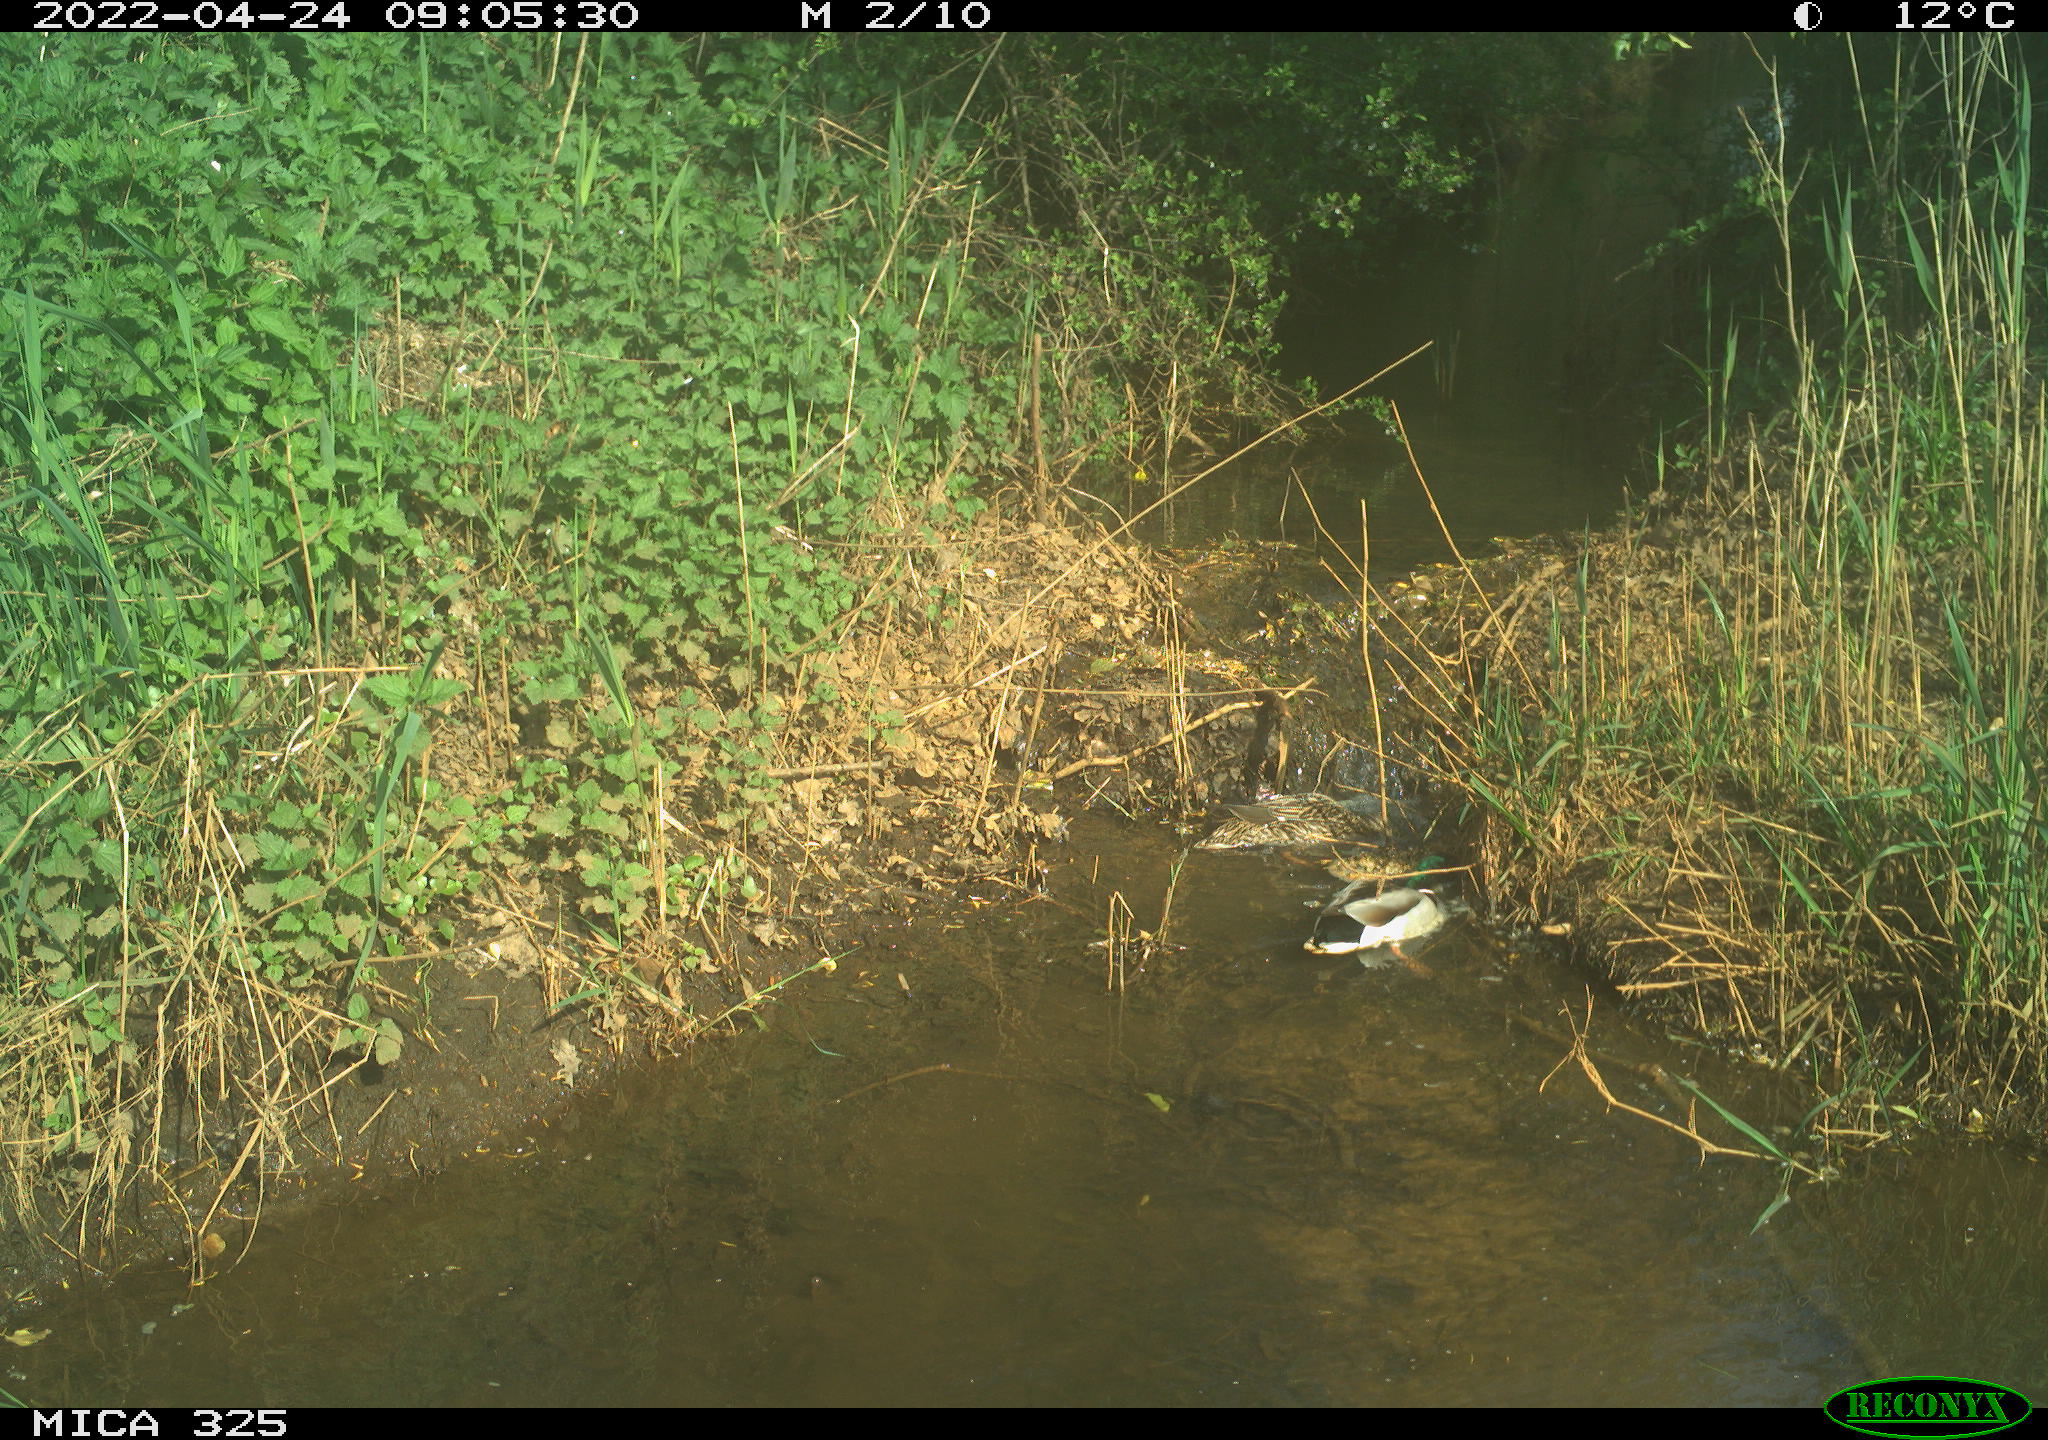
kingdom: Animalia
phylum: Chordata
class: Aves
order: Anseriformes
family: Anatidae
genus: Anas
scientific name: Anas platyrhynchos
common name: Mallard
